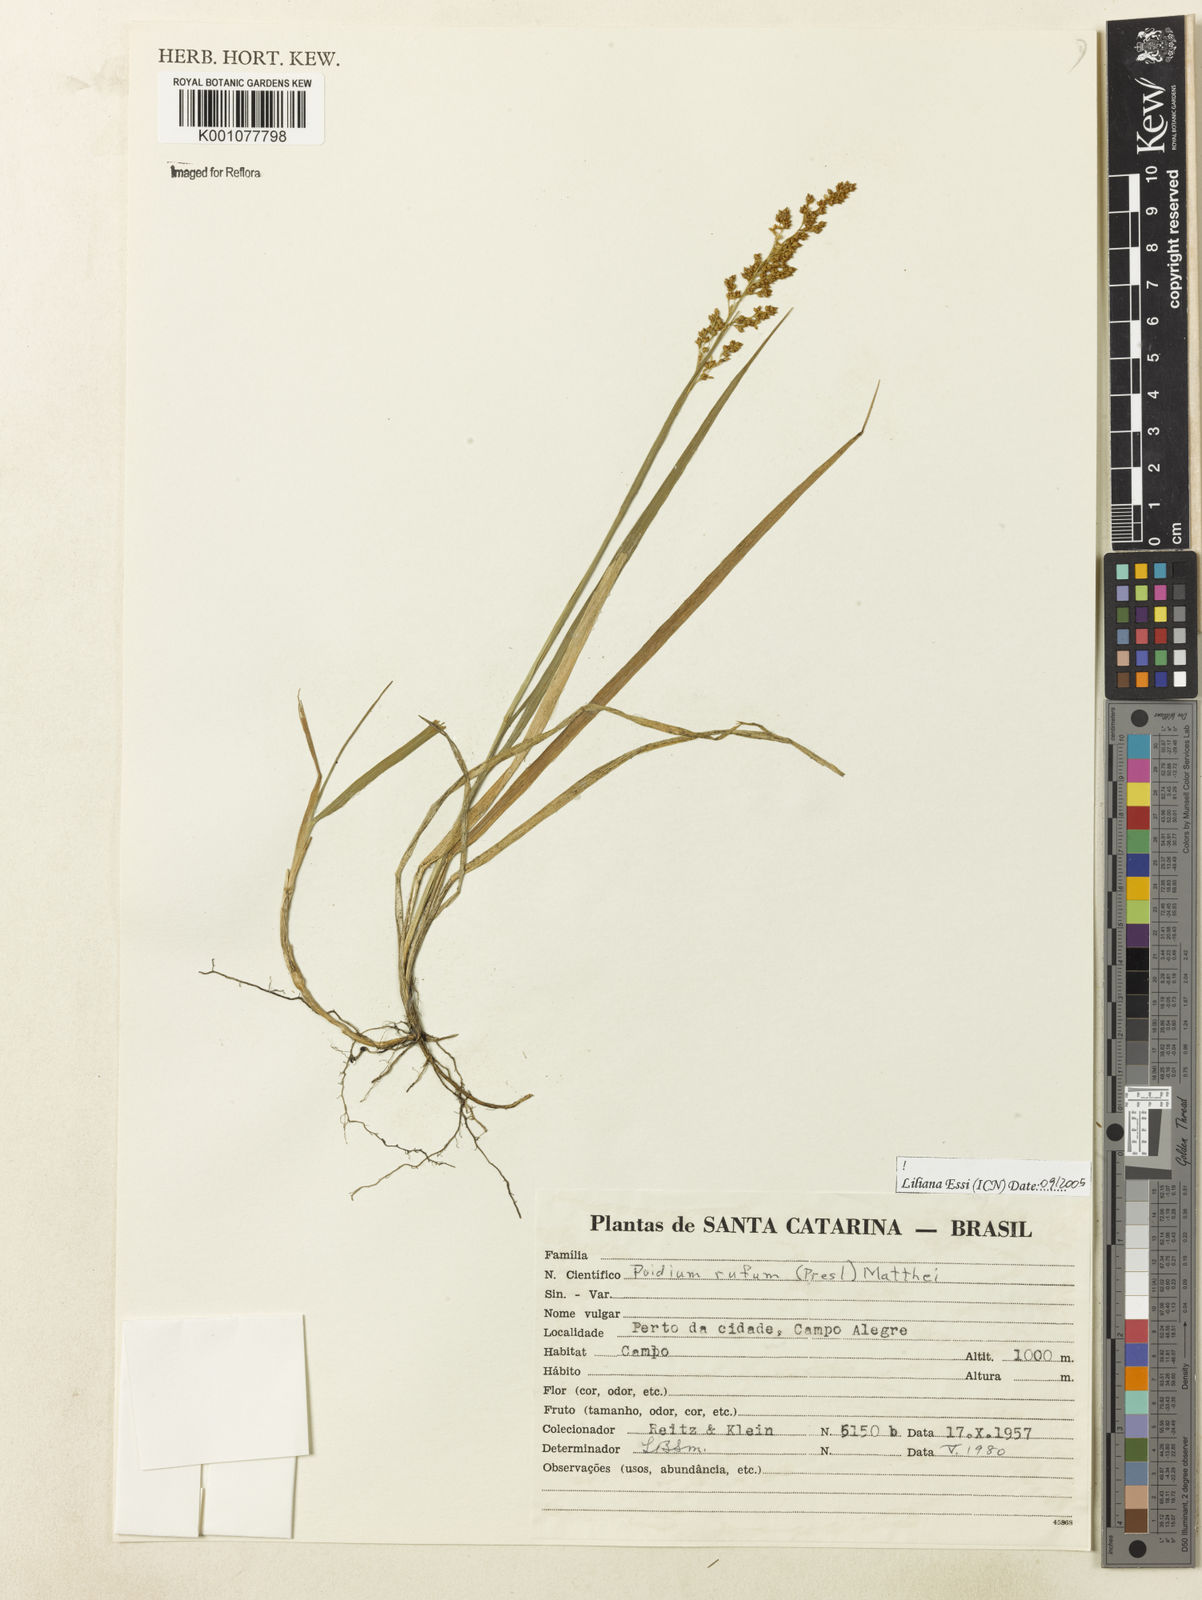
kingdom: Plantae
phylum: Tracheophyta
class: Liliopsida
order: Poales
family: Poaceae
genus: Lombardochloa
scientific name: Lombardochloa rufa
